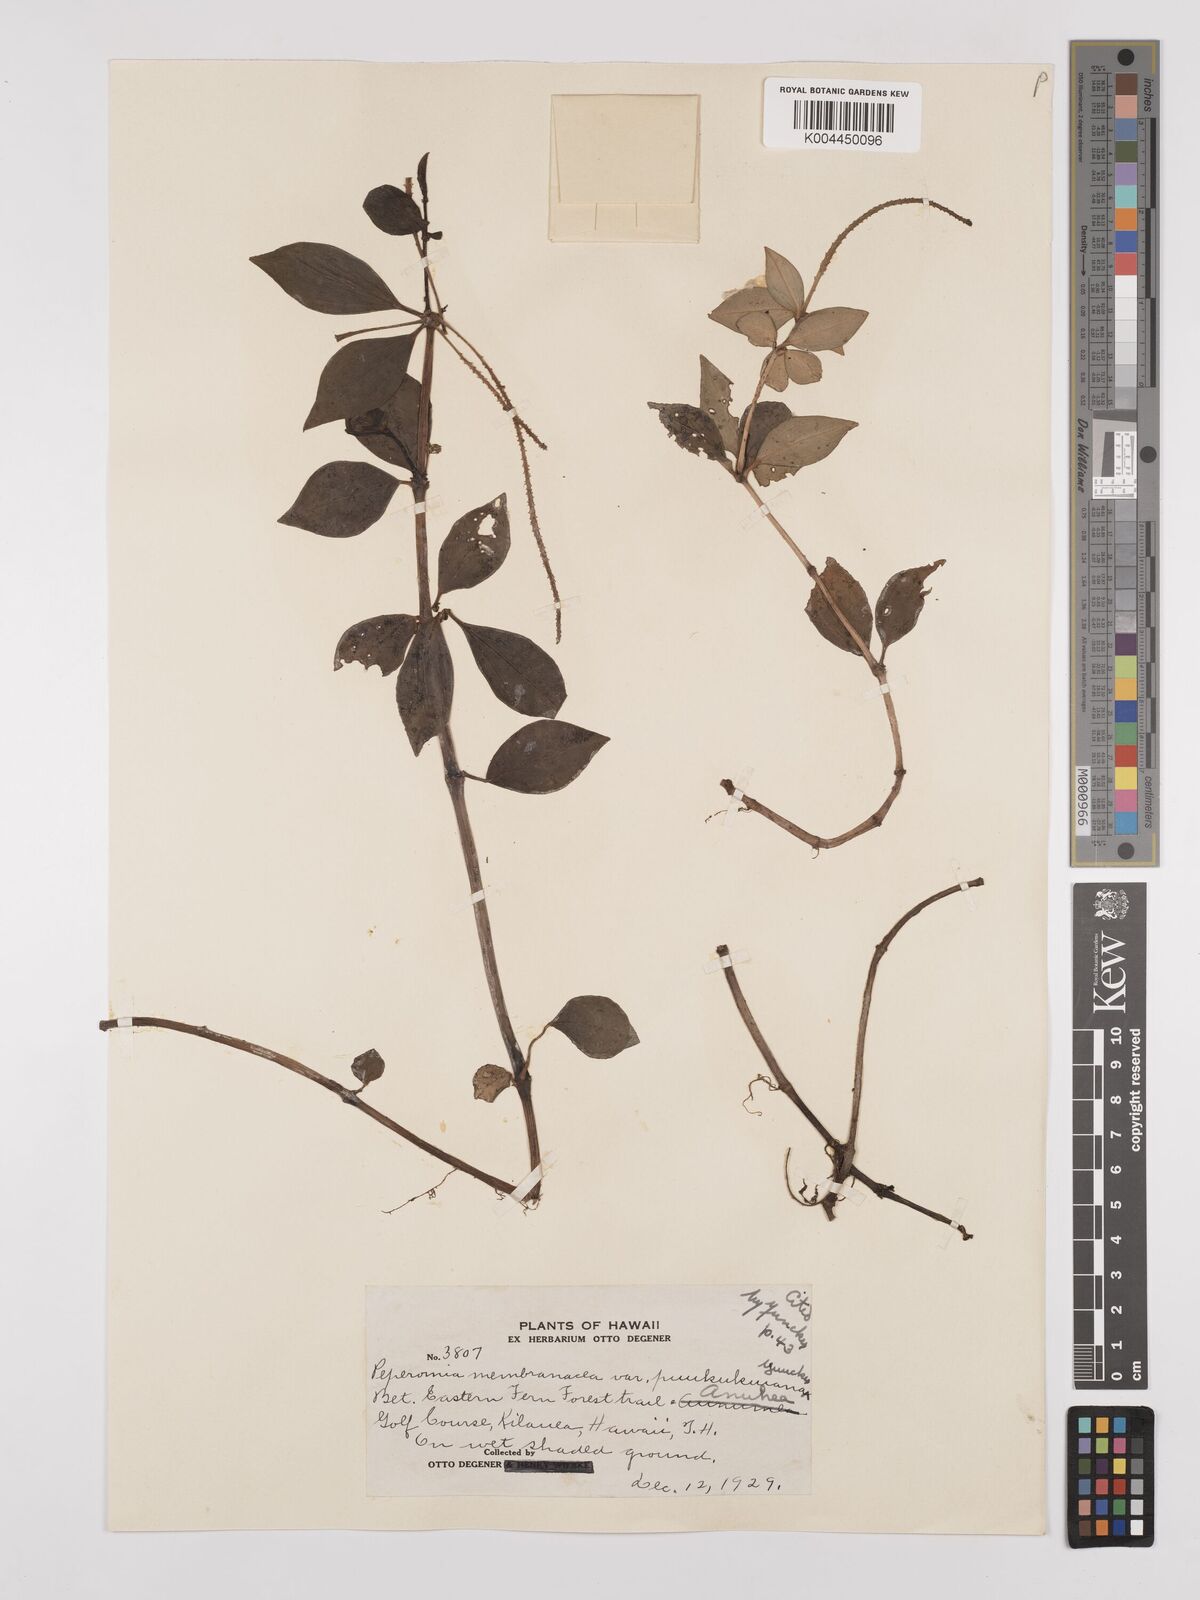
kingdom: Plantae
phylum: Tracheophyta
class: Magnoliopsida
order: Piperales
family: Piperaceae
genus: Peperomia
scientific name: Peperomia
